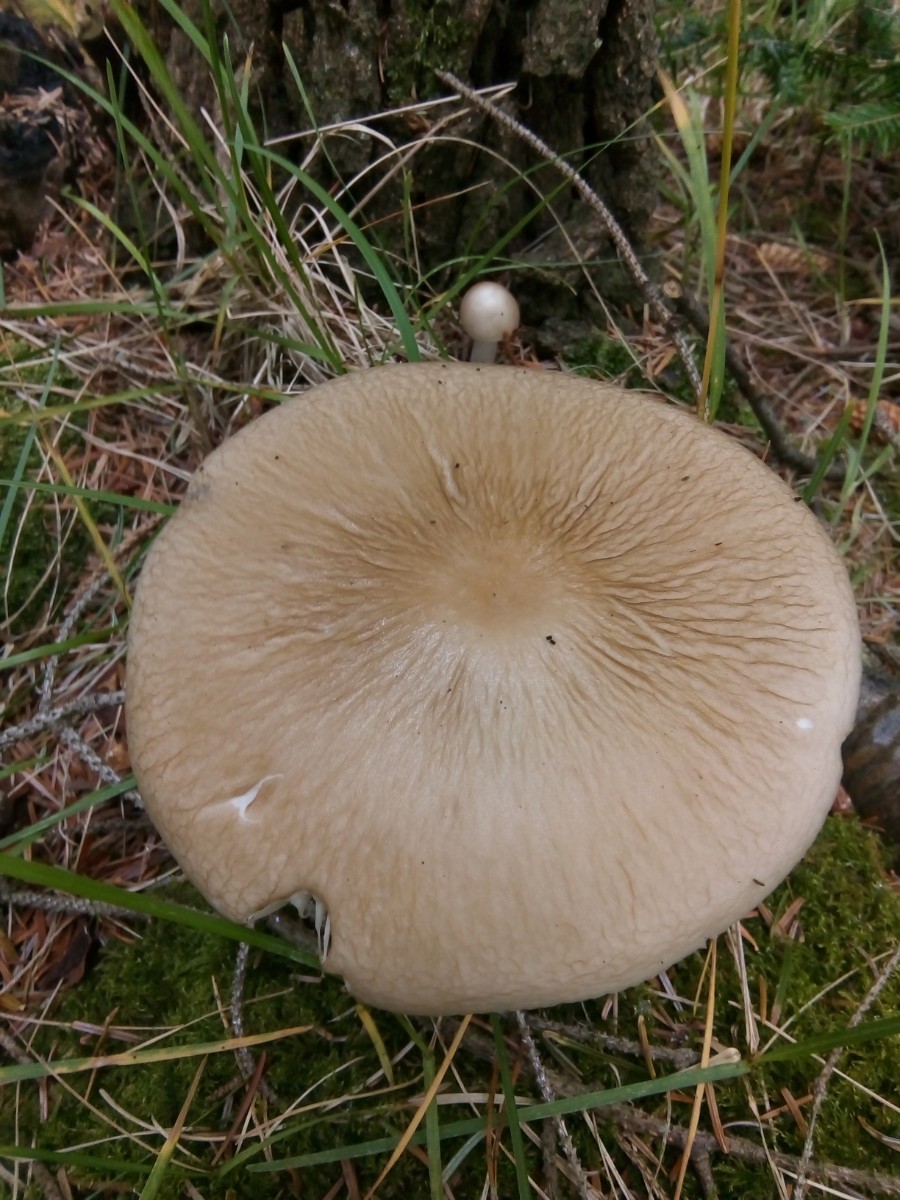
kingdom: Fungi
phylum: Basidiomycota
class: Agaricomycetes
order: Agaricales
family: Physalacriaceae
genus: Hymenopellis
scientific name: Hymenopellis radicata
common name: almindelig pælerodshat
